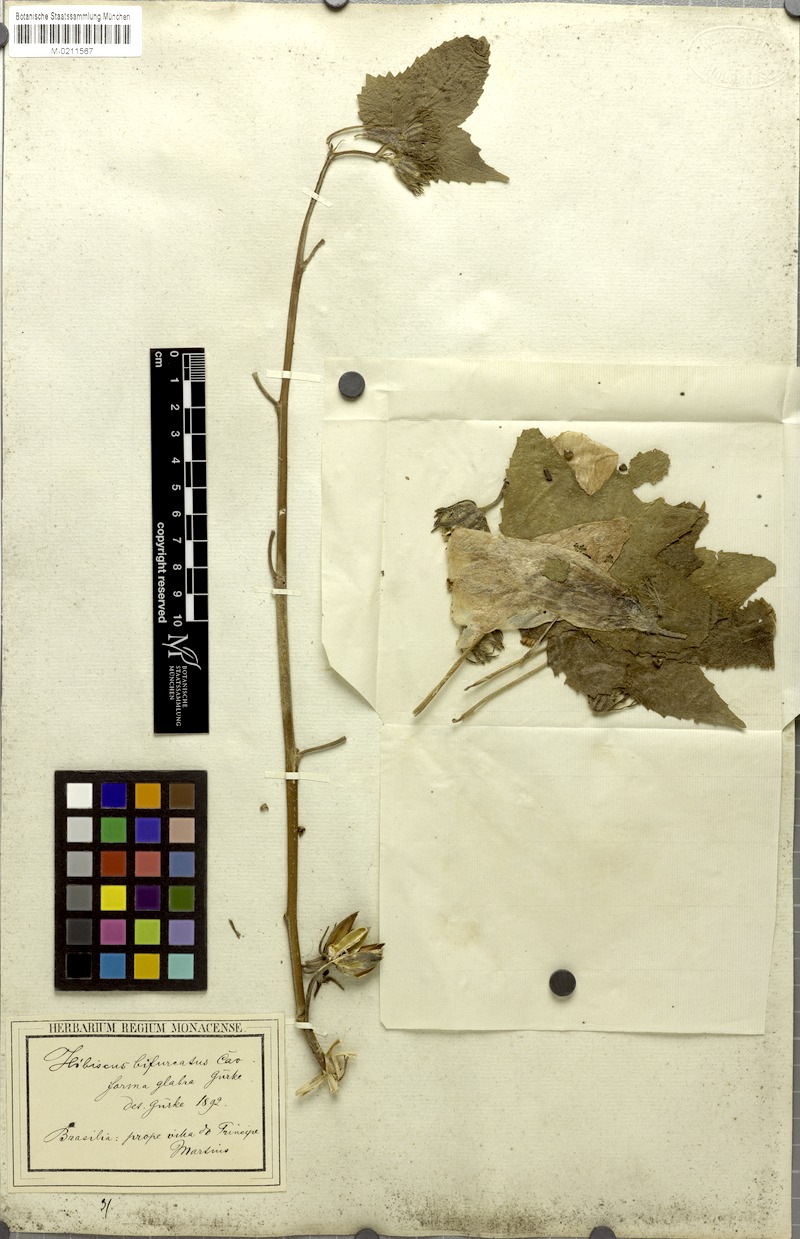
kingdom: Plantae
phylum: Tracheophyta
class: Magnoliopsida
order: Malvales
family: Malvaceae
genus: Hibiscus
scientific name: Hibiscus bifurcatus
